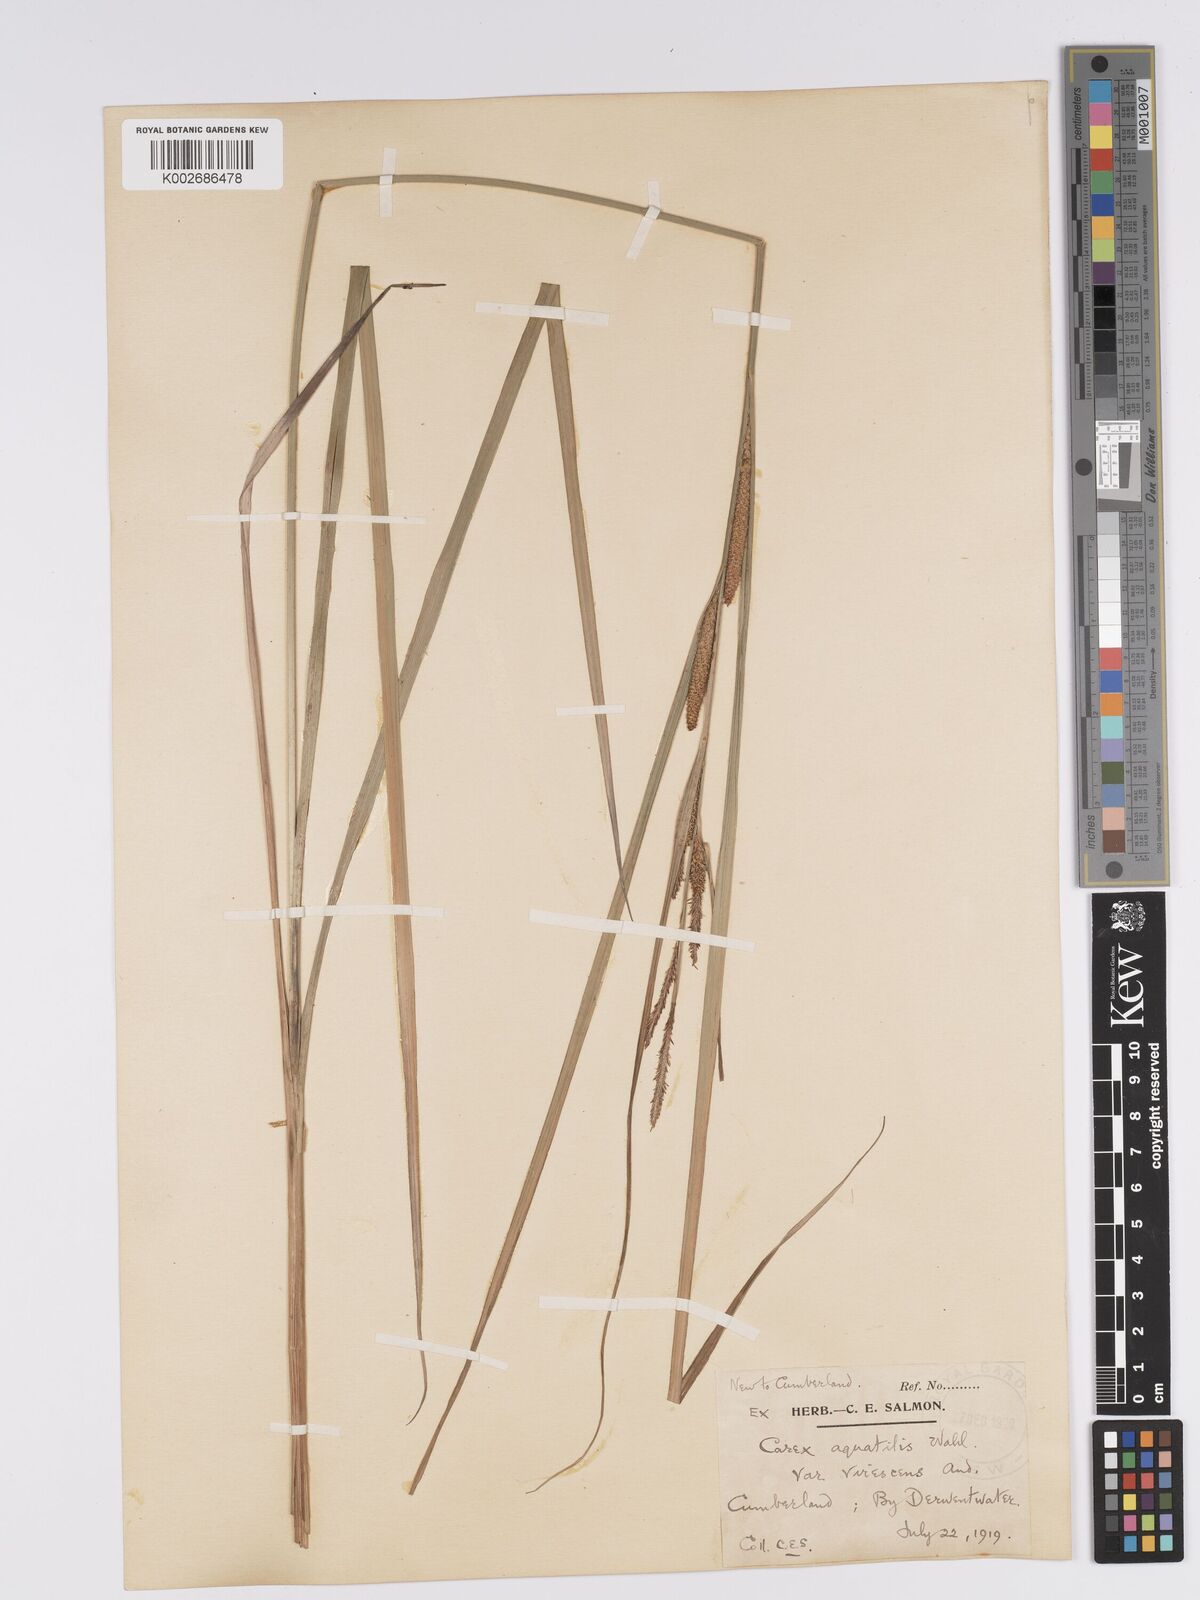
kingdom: Plantae
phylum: Tracheophyta
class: Liliopsida
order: Poales
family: Cyperaceae
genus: Carex
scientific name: Carex aquatilis
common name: Water sedge
